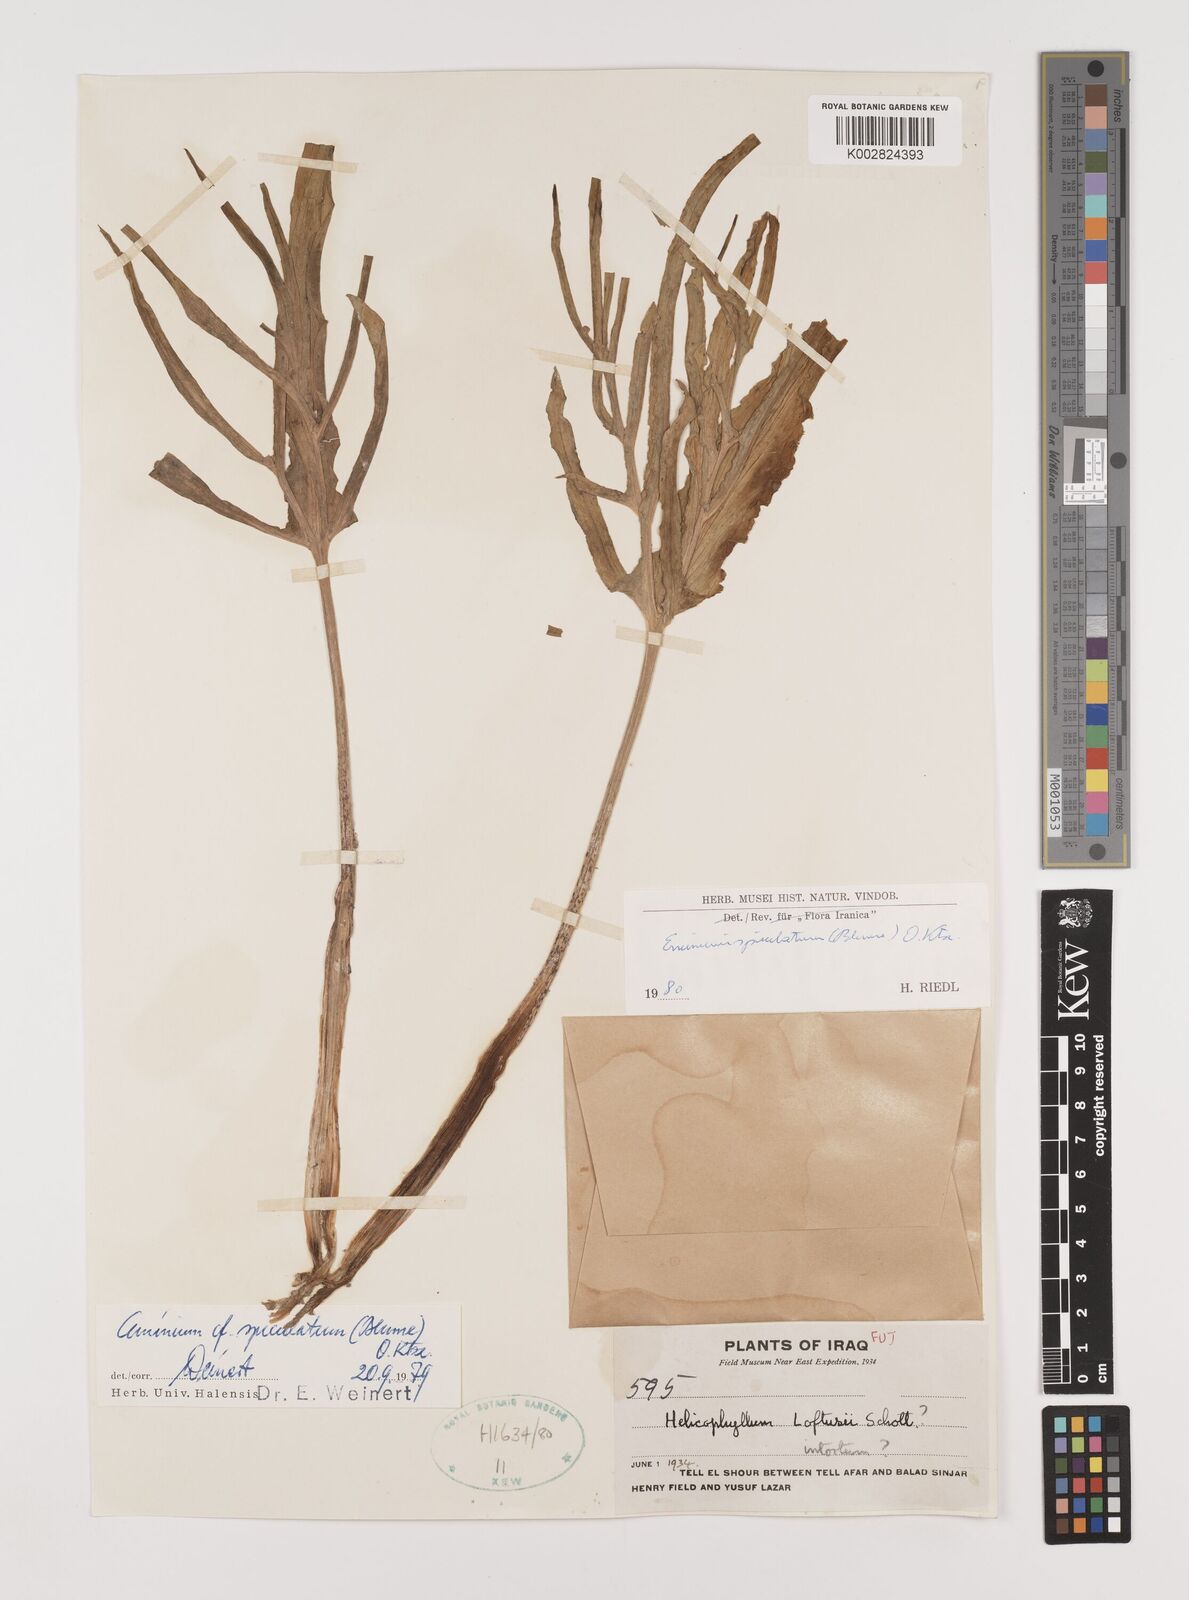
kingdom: Plantae
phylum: Tracheophyta
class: Liliopsida
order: Alismatales
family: Araceae
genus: Eminium
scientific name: Eminium spiculatum
